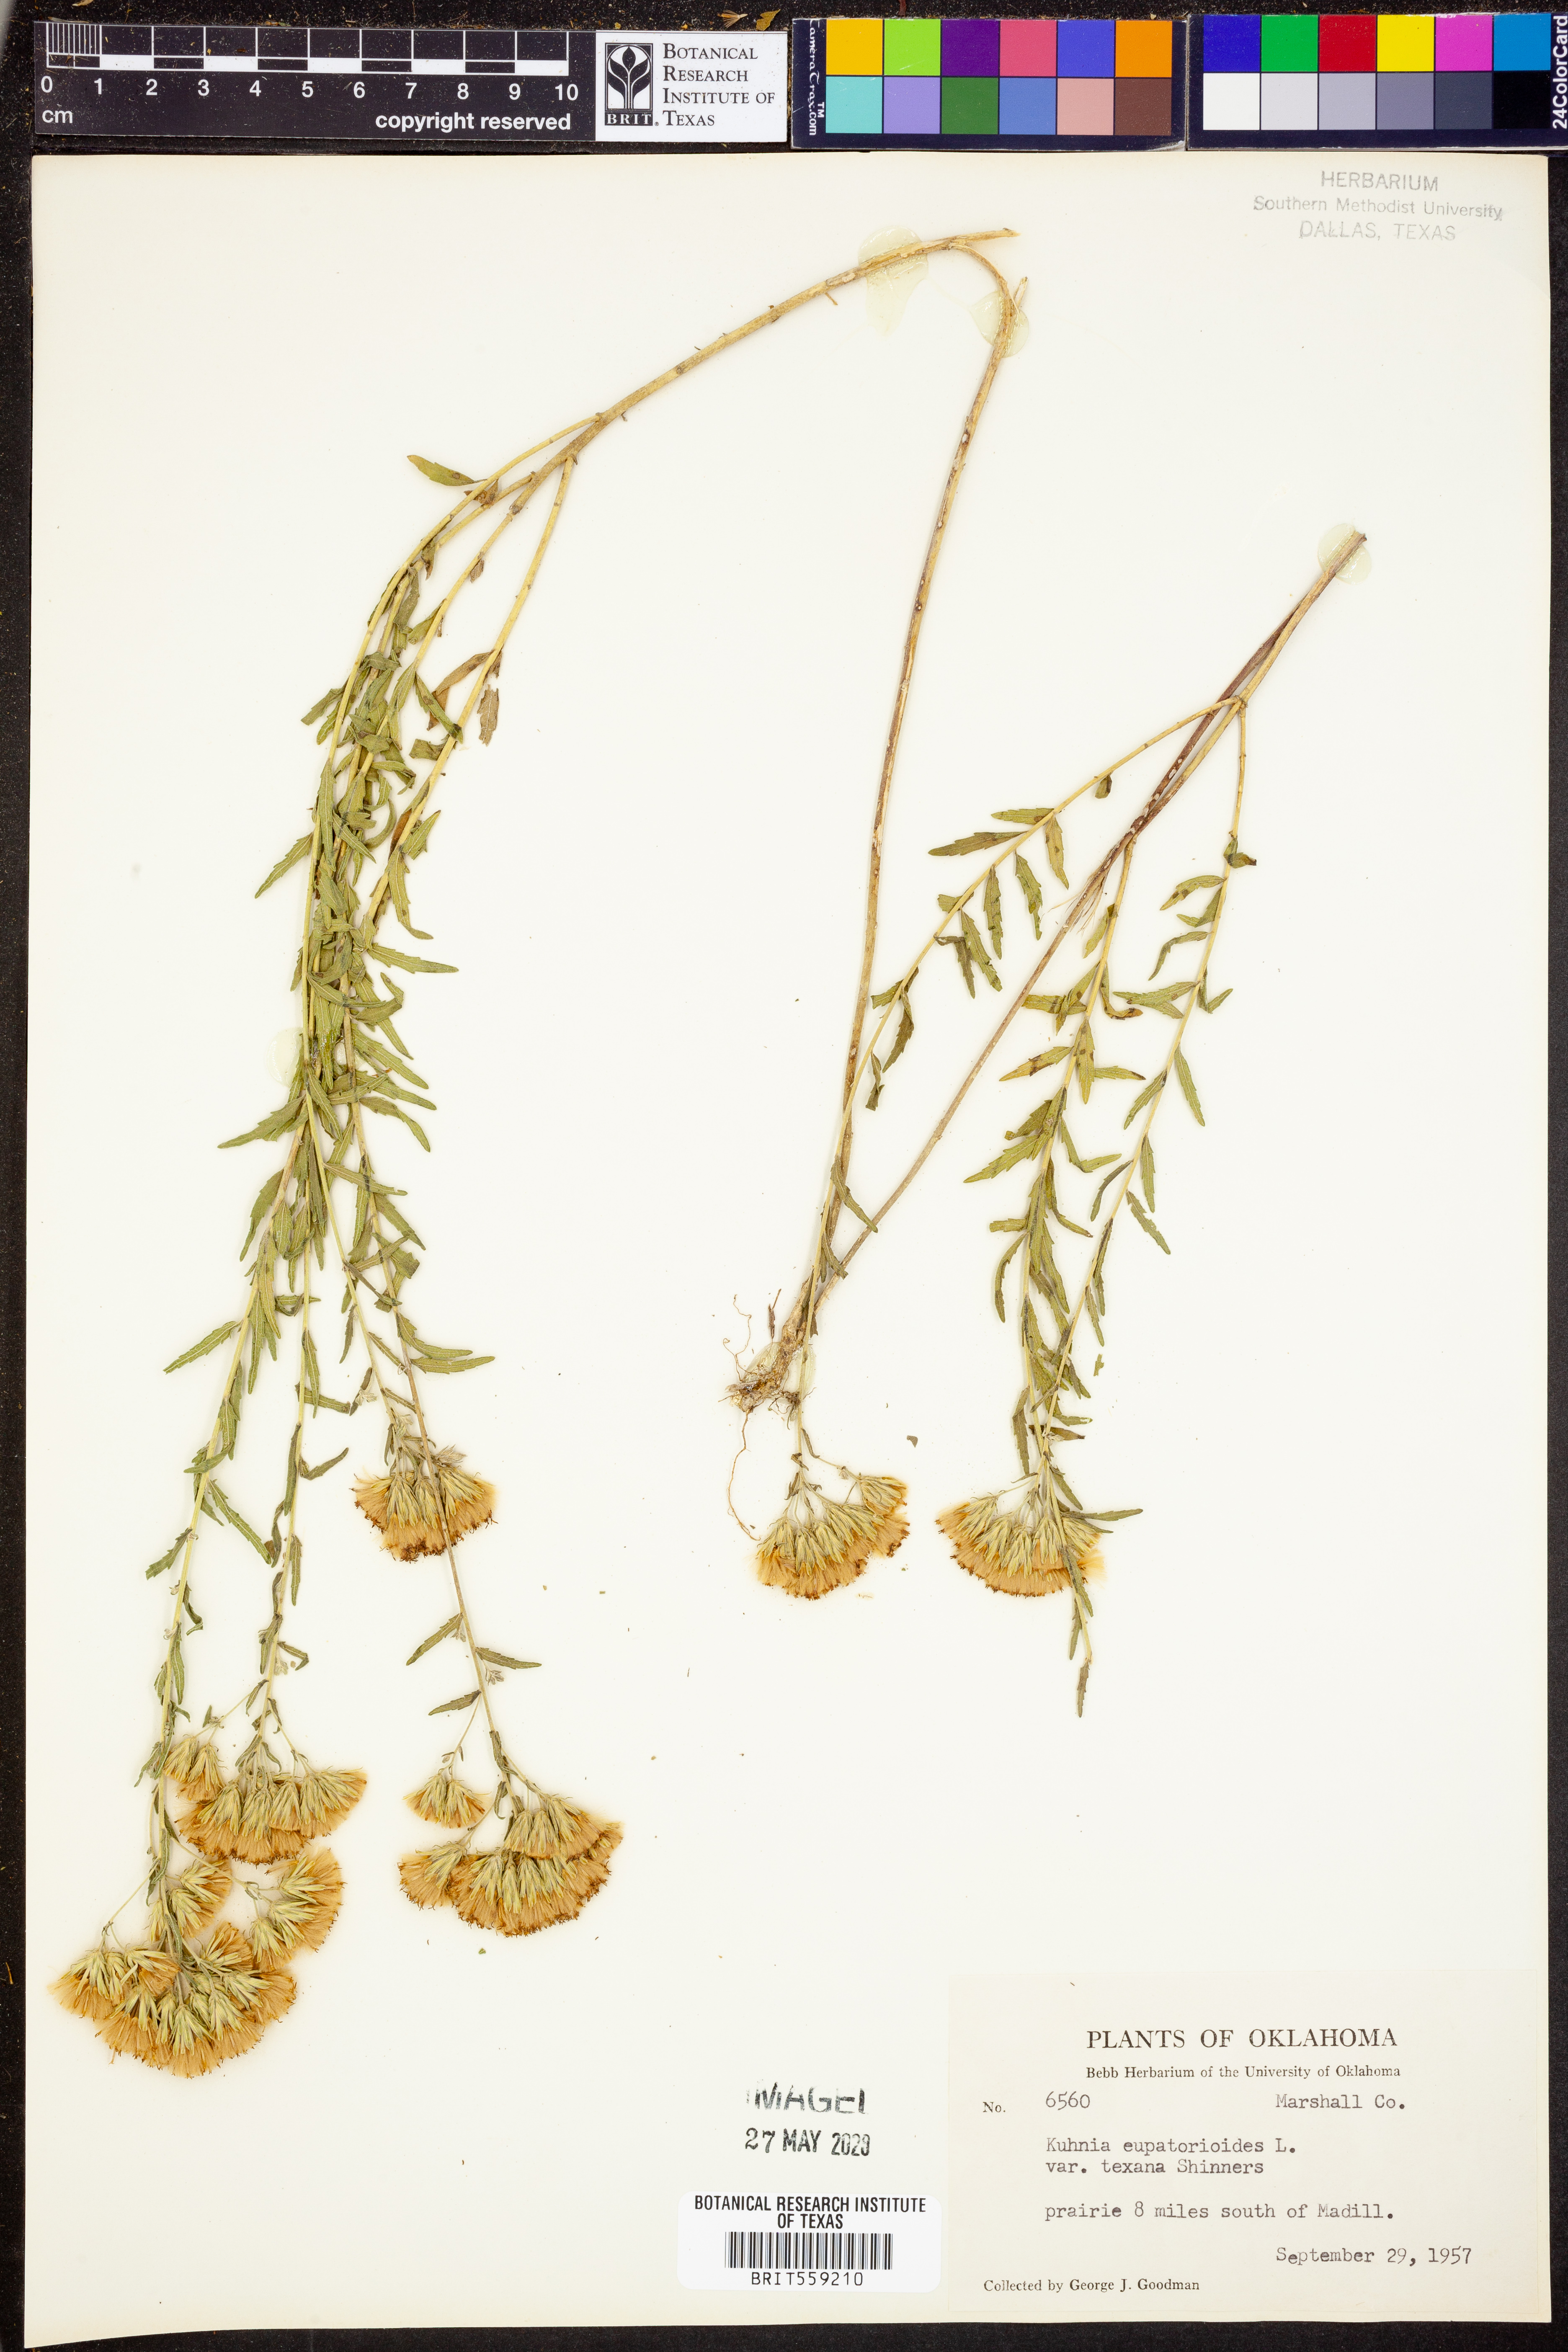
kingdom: Plantae
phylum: Tracheophyta
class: Magnoliopsida
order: Asterales
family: Asteraceae
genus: Brickellia
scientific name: Brickellia
